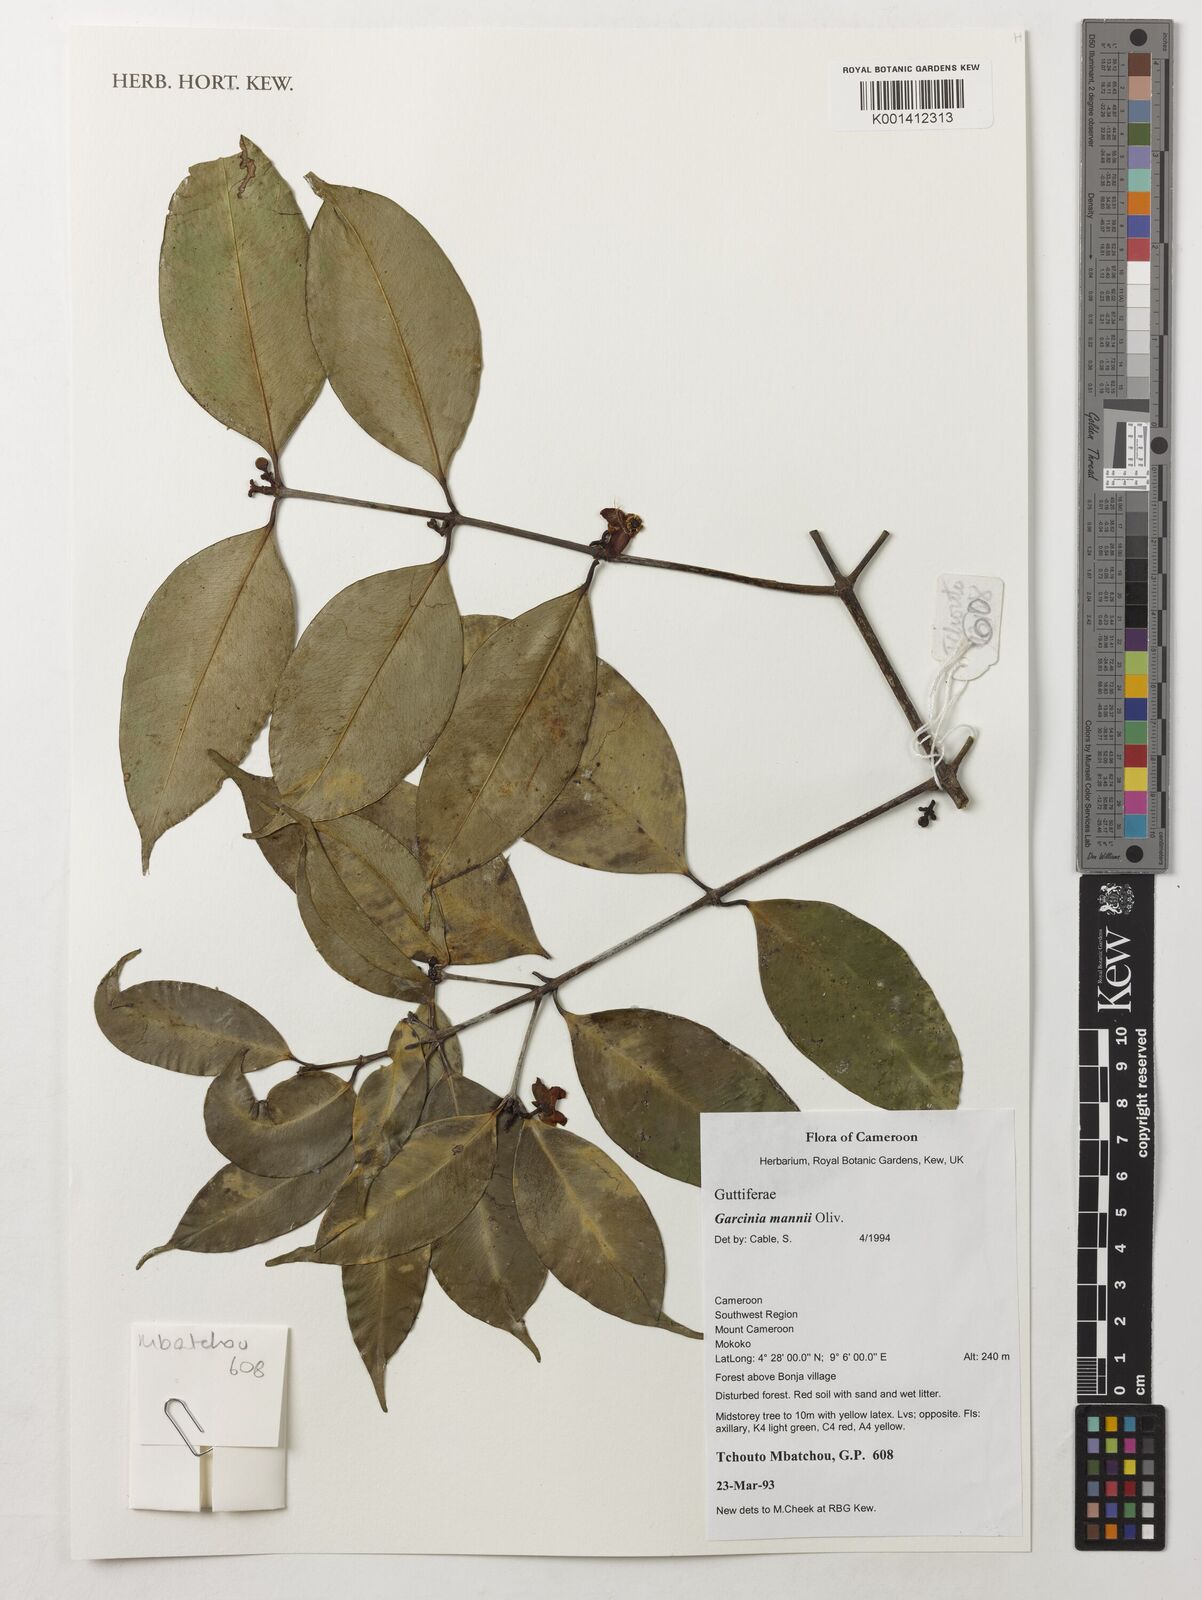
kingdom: Plantae
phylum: Tracheophyta
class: Magnoliopsida
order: Malpighiales
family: Clusiaceae
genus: Garcinia
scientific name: Garcinia mannii
